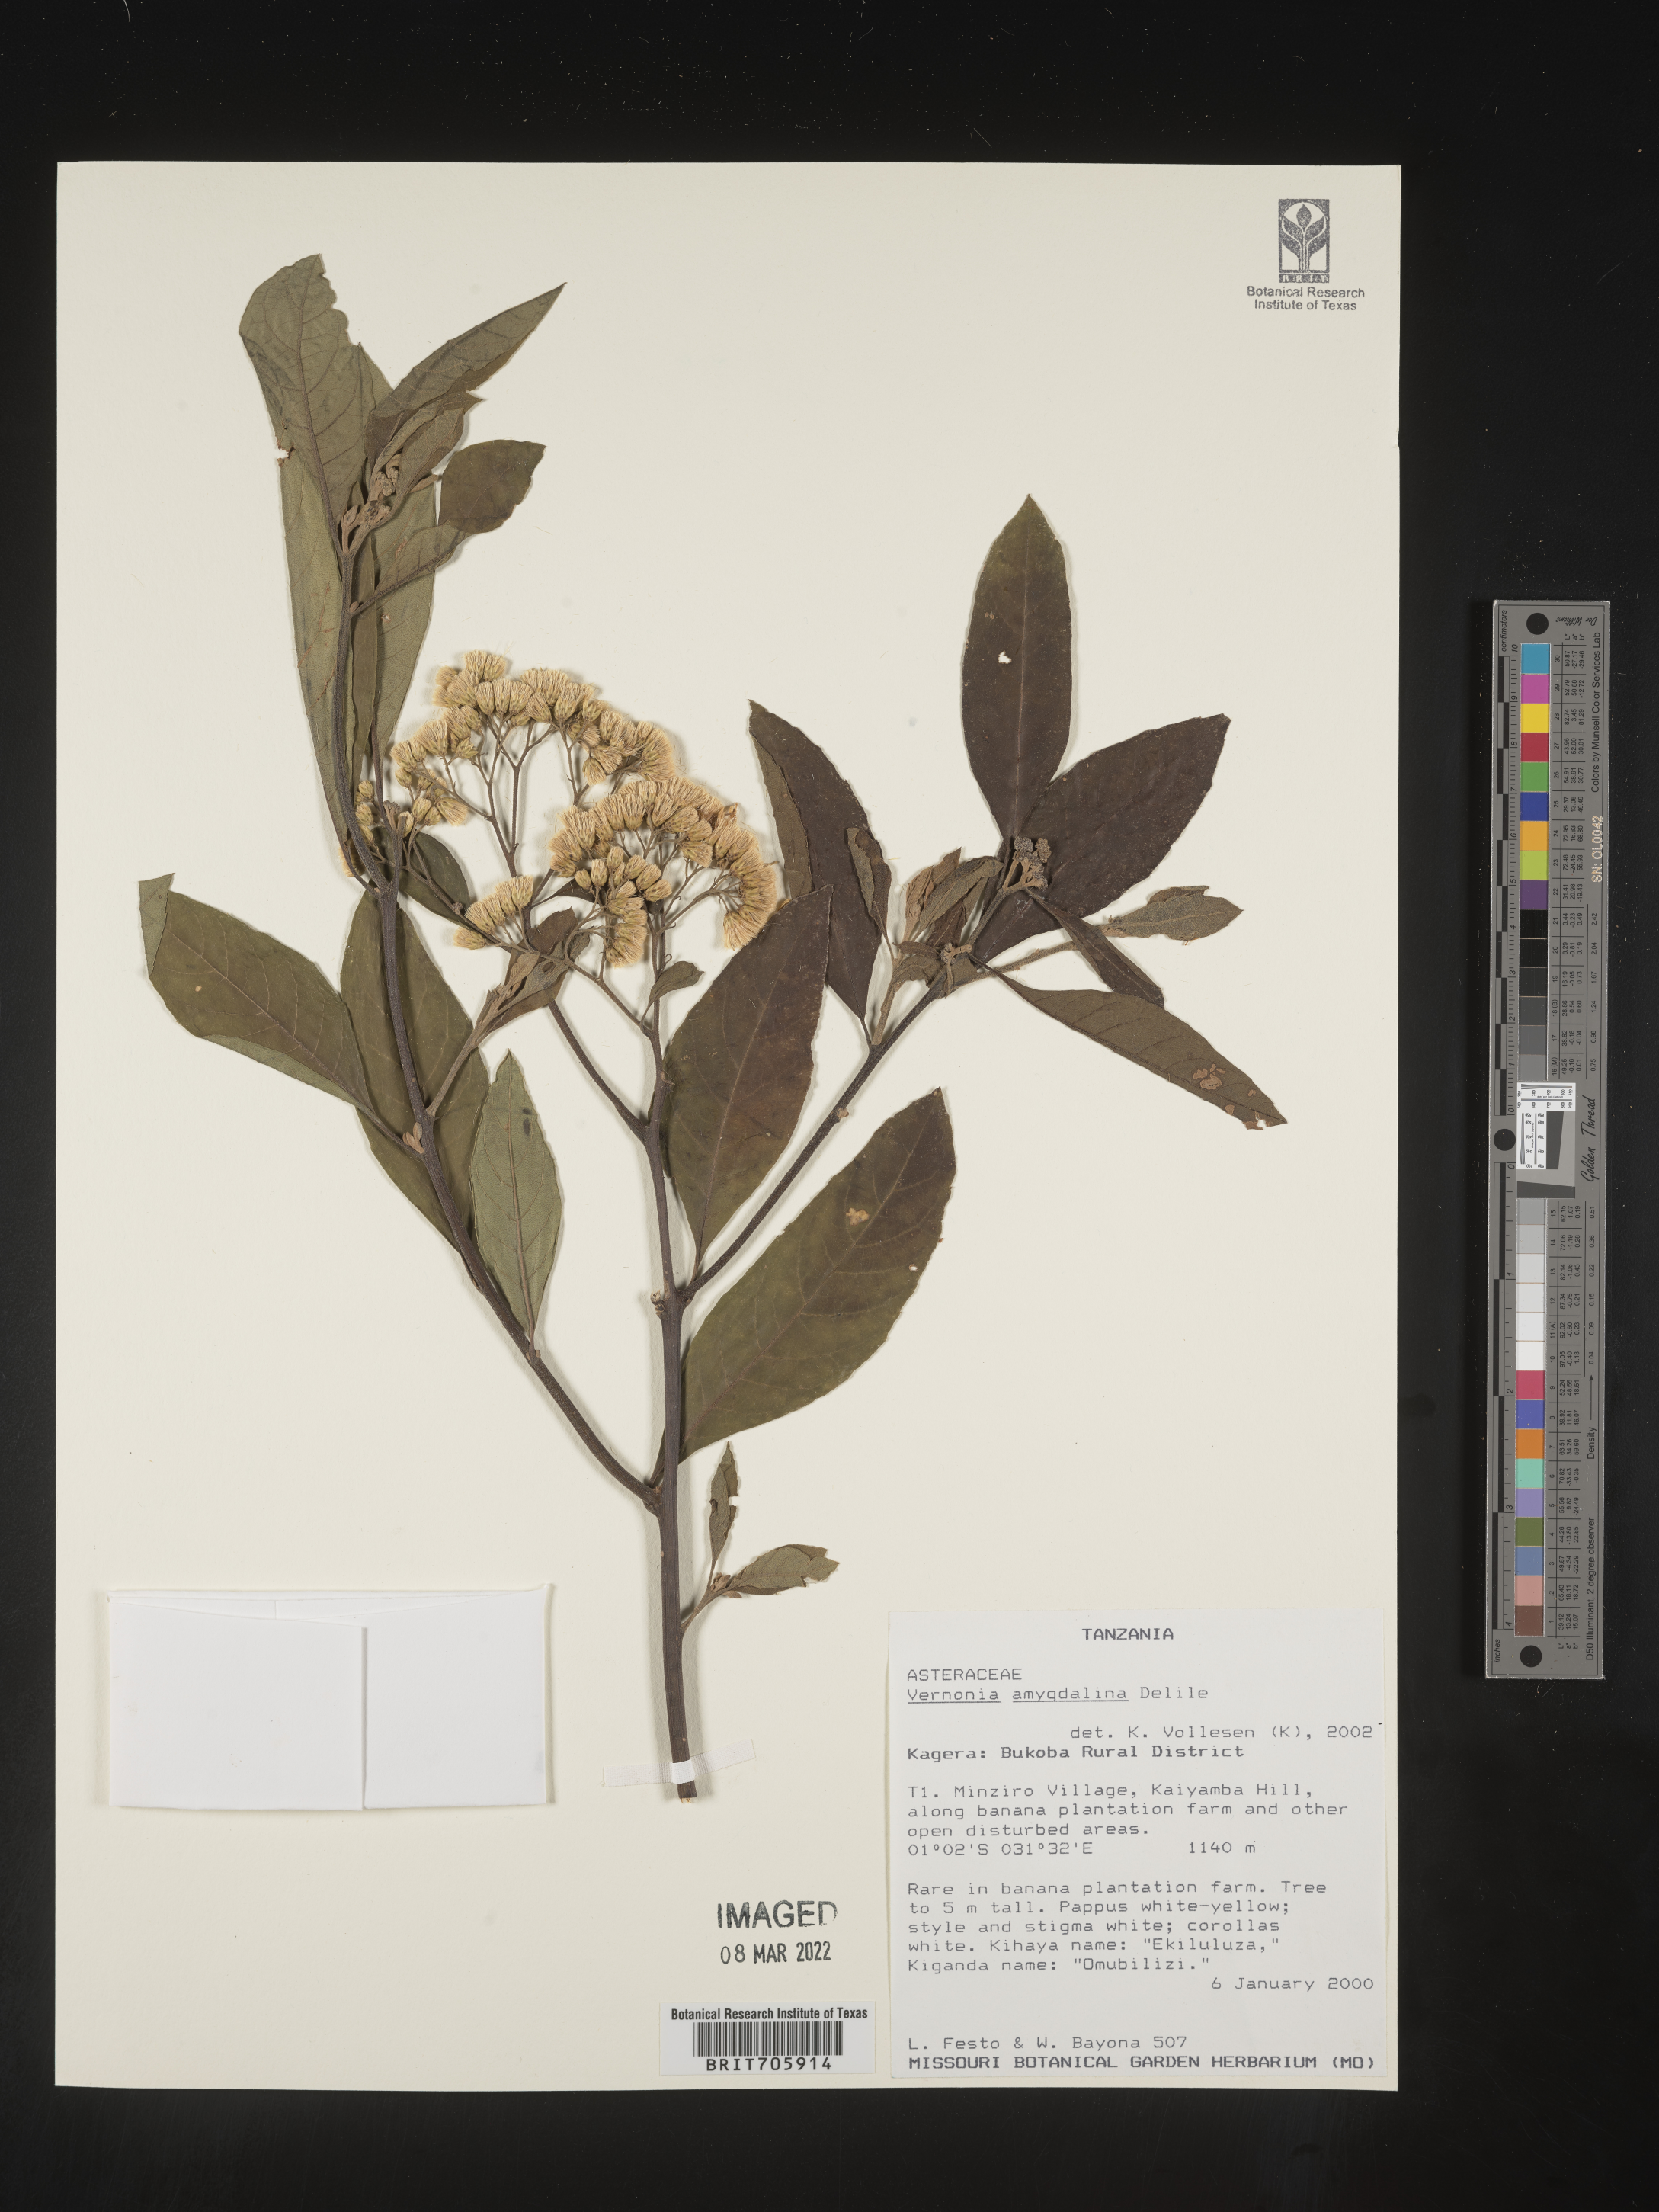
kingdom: Plantae
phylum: Tracheophyta
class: Magnoliopsida
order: Asterales
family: Asteraceae
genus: Vernonia
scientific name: Vernonia
